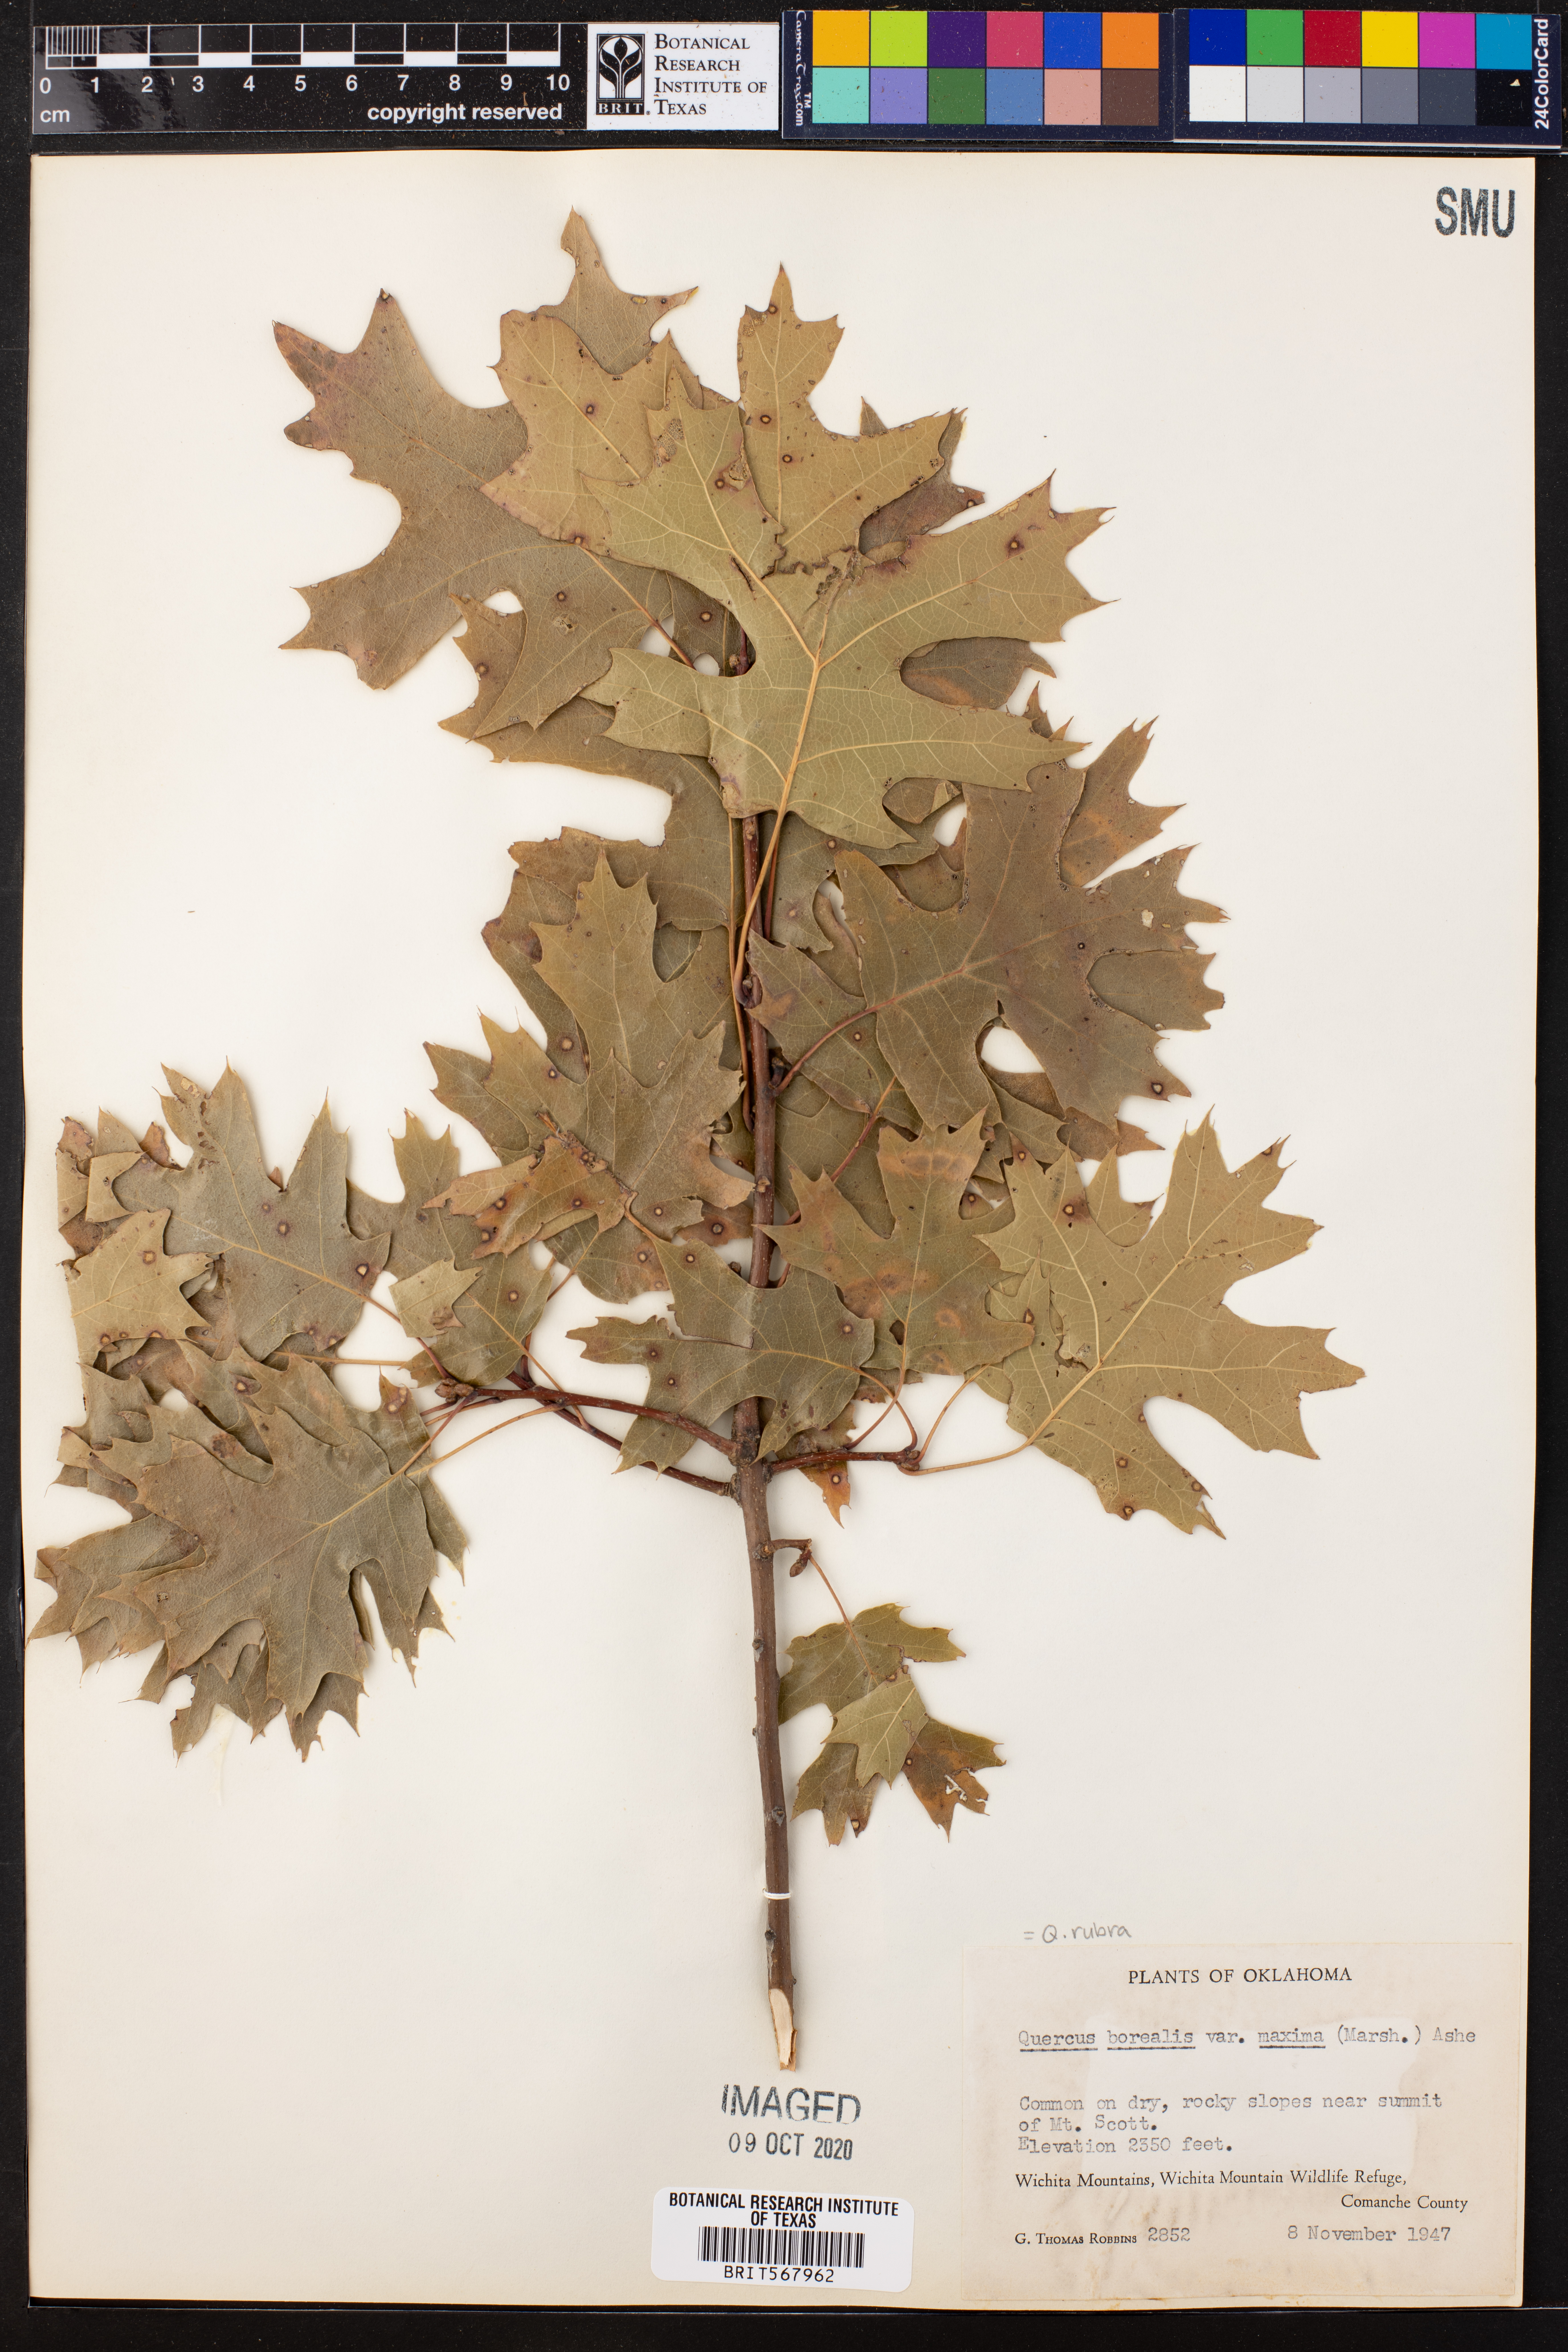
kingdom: Plantae
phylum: Tracheophyta
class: Magnoliopsida
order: Fagales
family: Fagaceae
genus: Quercus
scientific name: Quercus rubra
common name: Red oak
